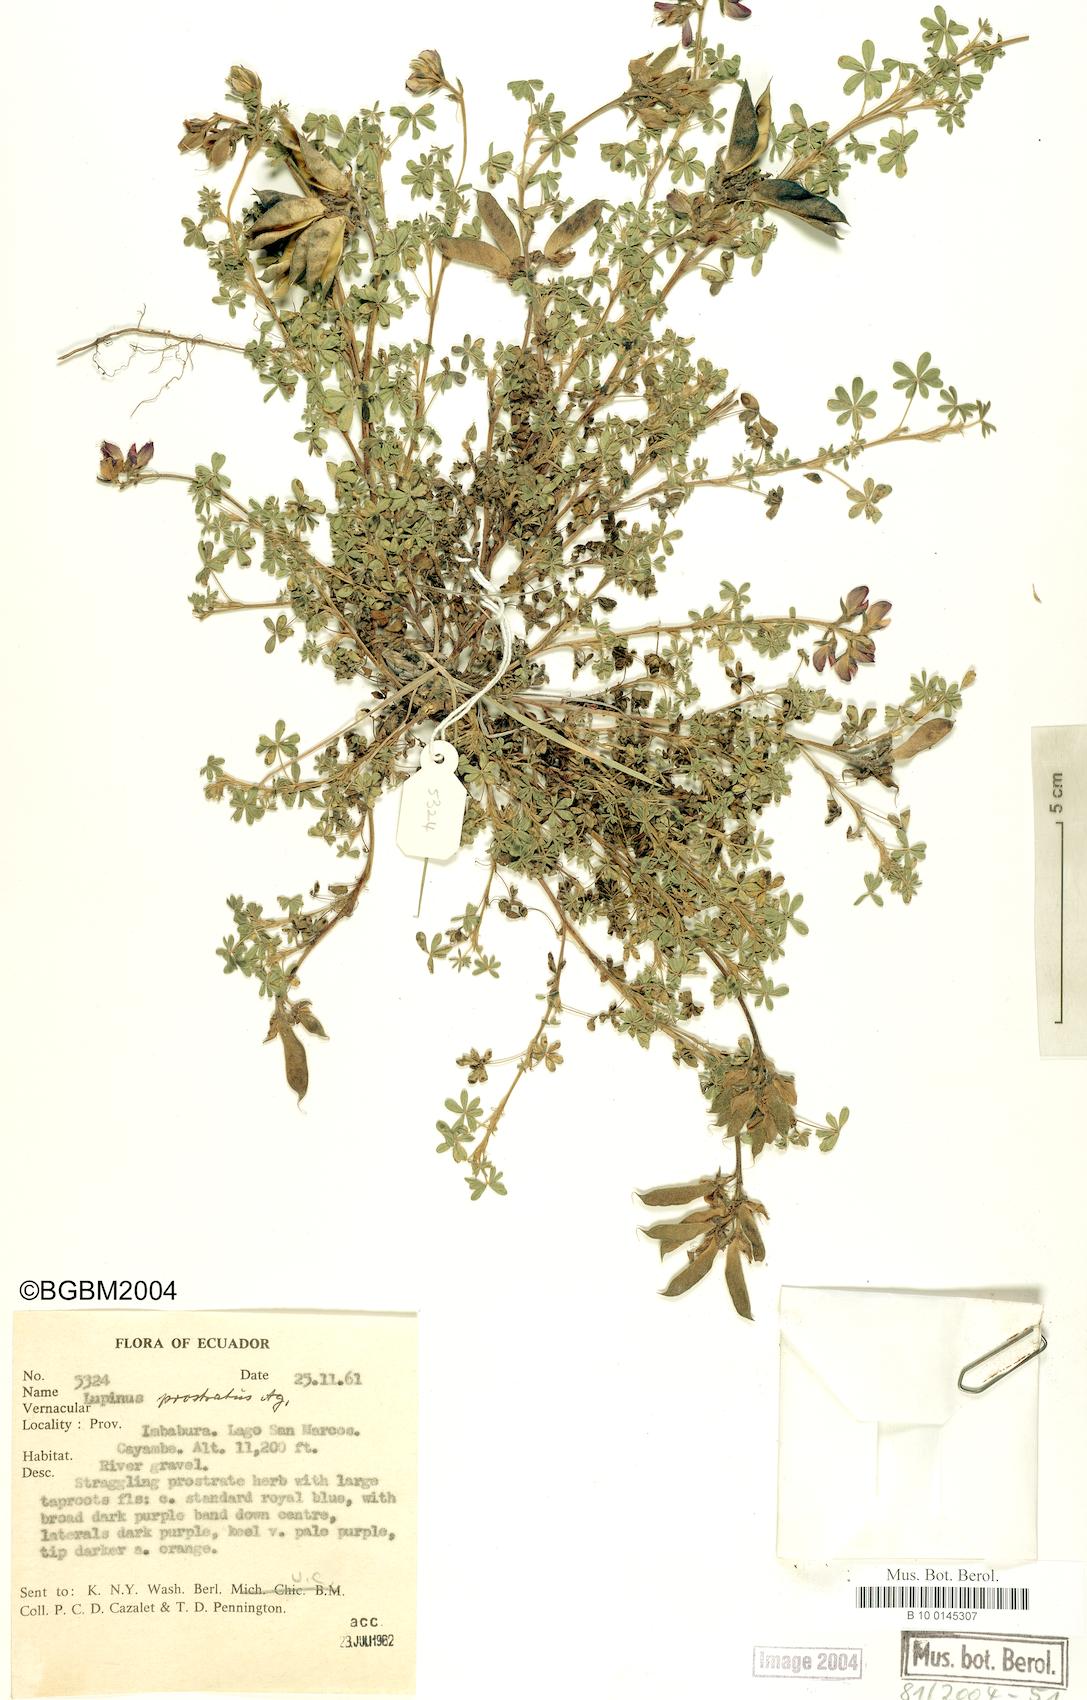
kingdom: Plantae
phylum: Tracheophyta
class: Magnoliopsida
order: Fabales
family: Fabaceae
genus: Lupinus
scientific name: Lupinus prostratus
